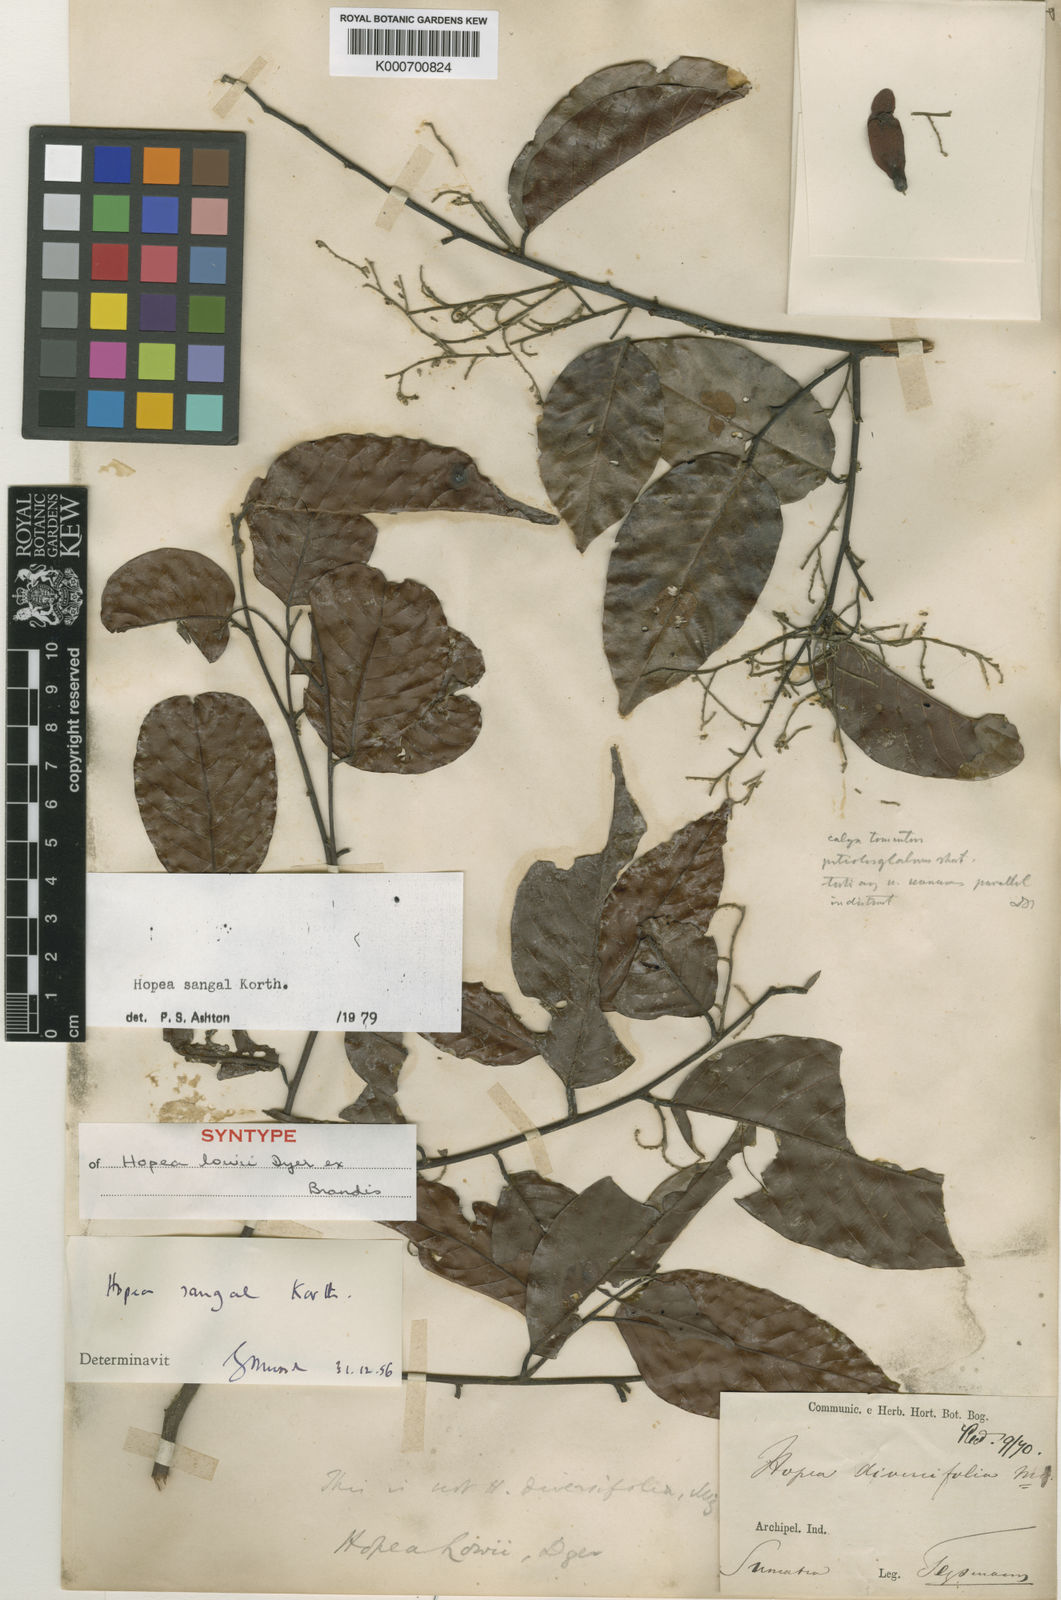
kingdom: Plantae
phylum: Tracheophyta
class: Magnoliopsida
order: Malvales
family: Dipterocarpaceae
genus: Hopea
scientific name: Hopea sangal
